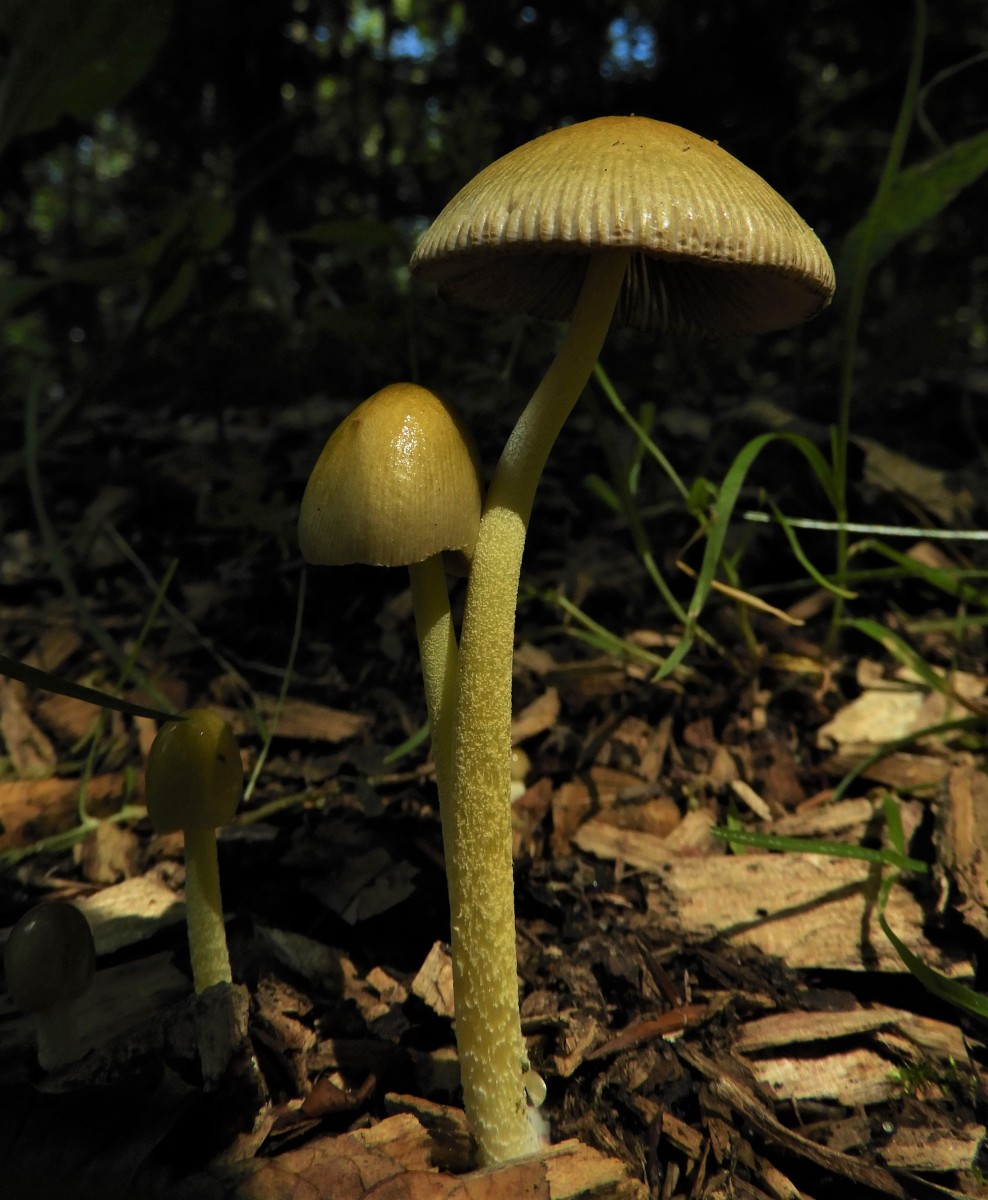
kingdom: Fungi
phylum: Basidiomycota
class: Agaricomycetes
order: Agaricales
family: Bolbitiaceae
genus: Bolbitius
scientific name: Bolbitius titubans
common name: almindelig gulhat
